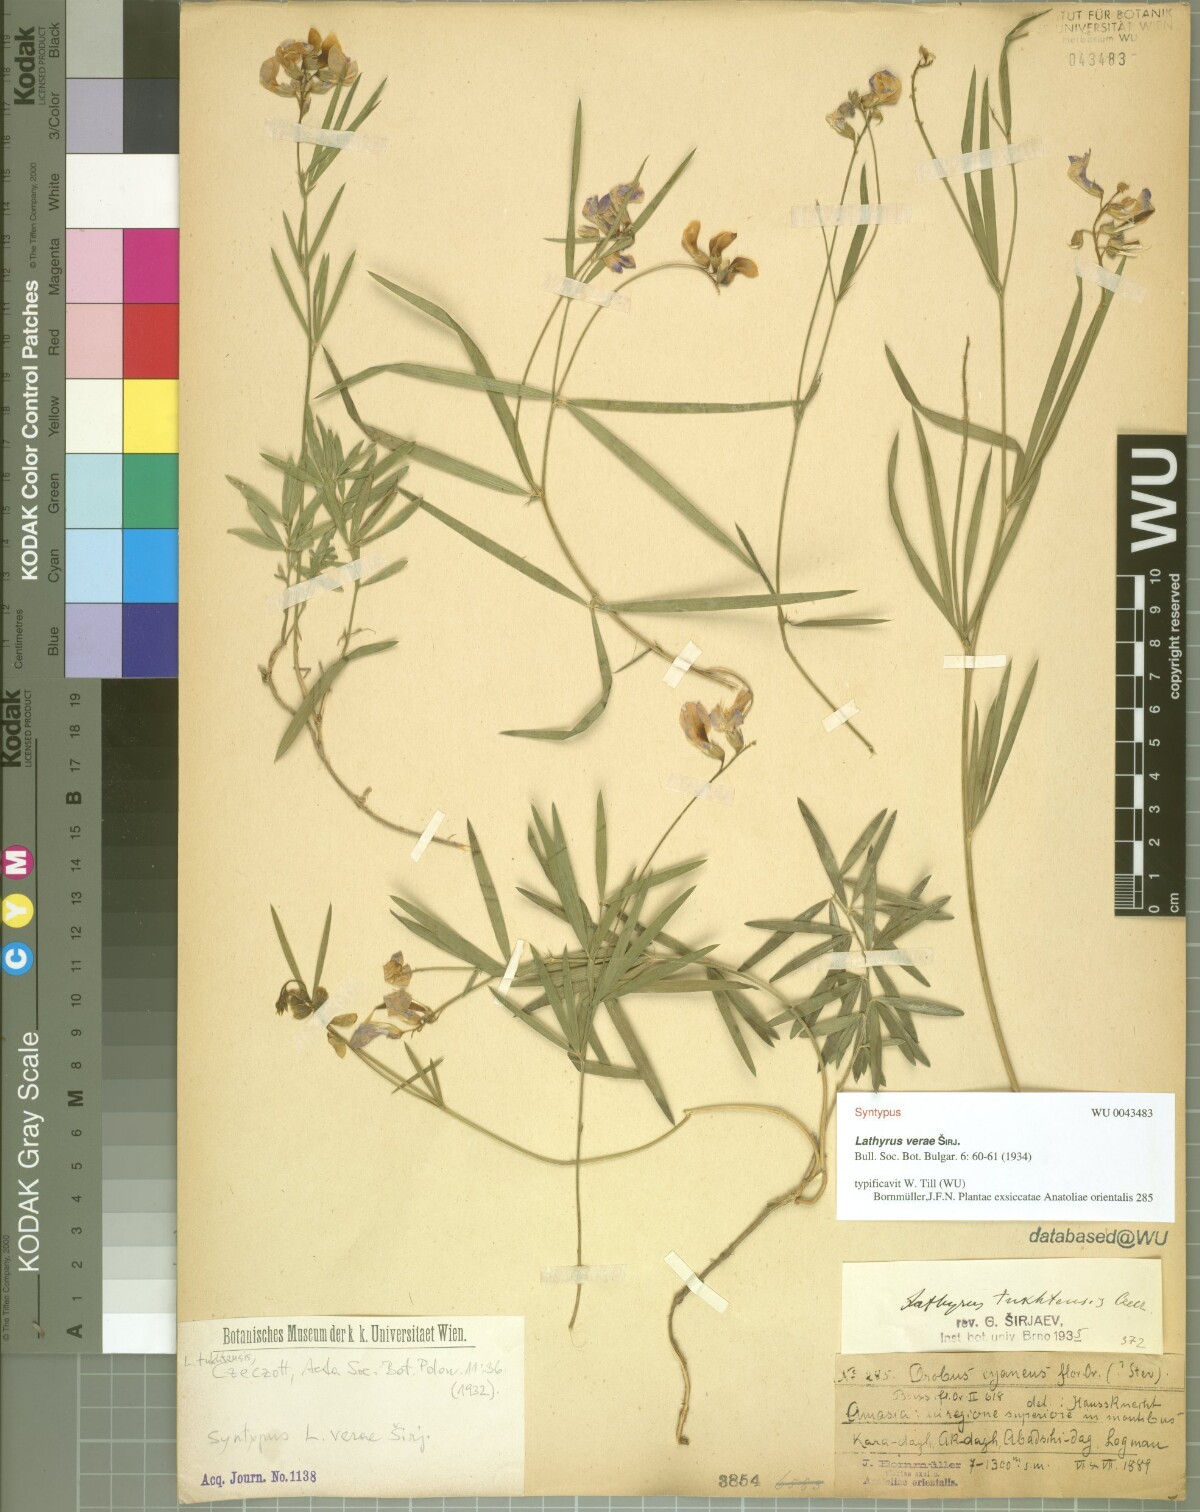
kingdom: Plantae
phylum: Tracheophyta
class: Magnoliopsida
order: Fabales
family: Fabaceae
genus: Lathyrus
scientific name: Lathyrus tukhtensis
